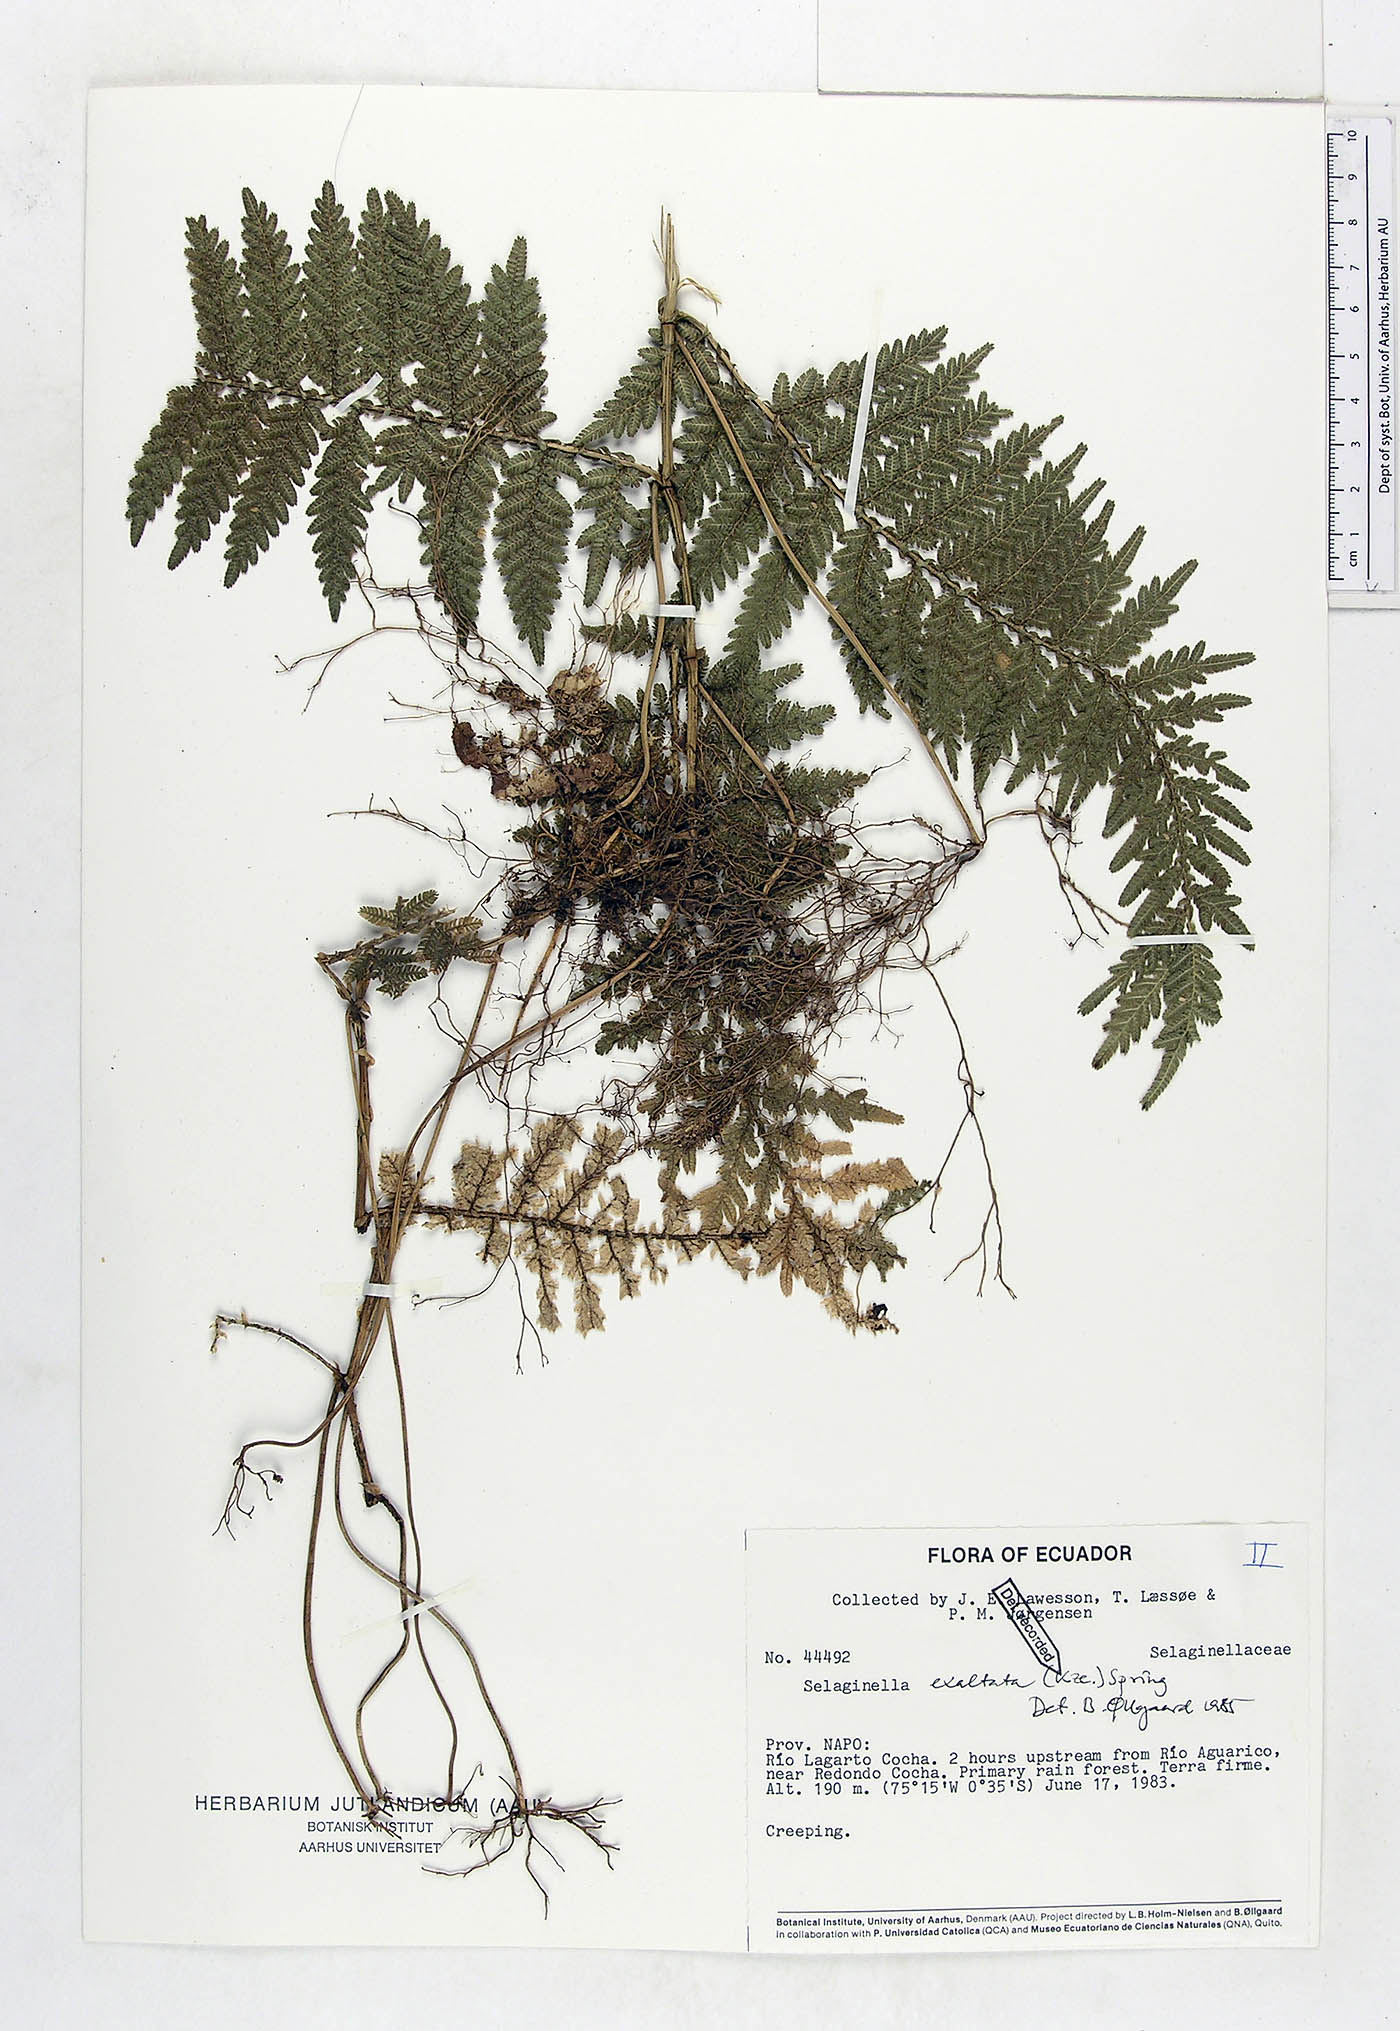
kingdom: Plantae
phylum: Tracheophyta
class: Lycopodiopsida
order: Selaginellales
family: Selaginellaceae
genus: Selaginella
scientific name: Selaginella exaltata
